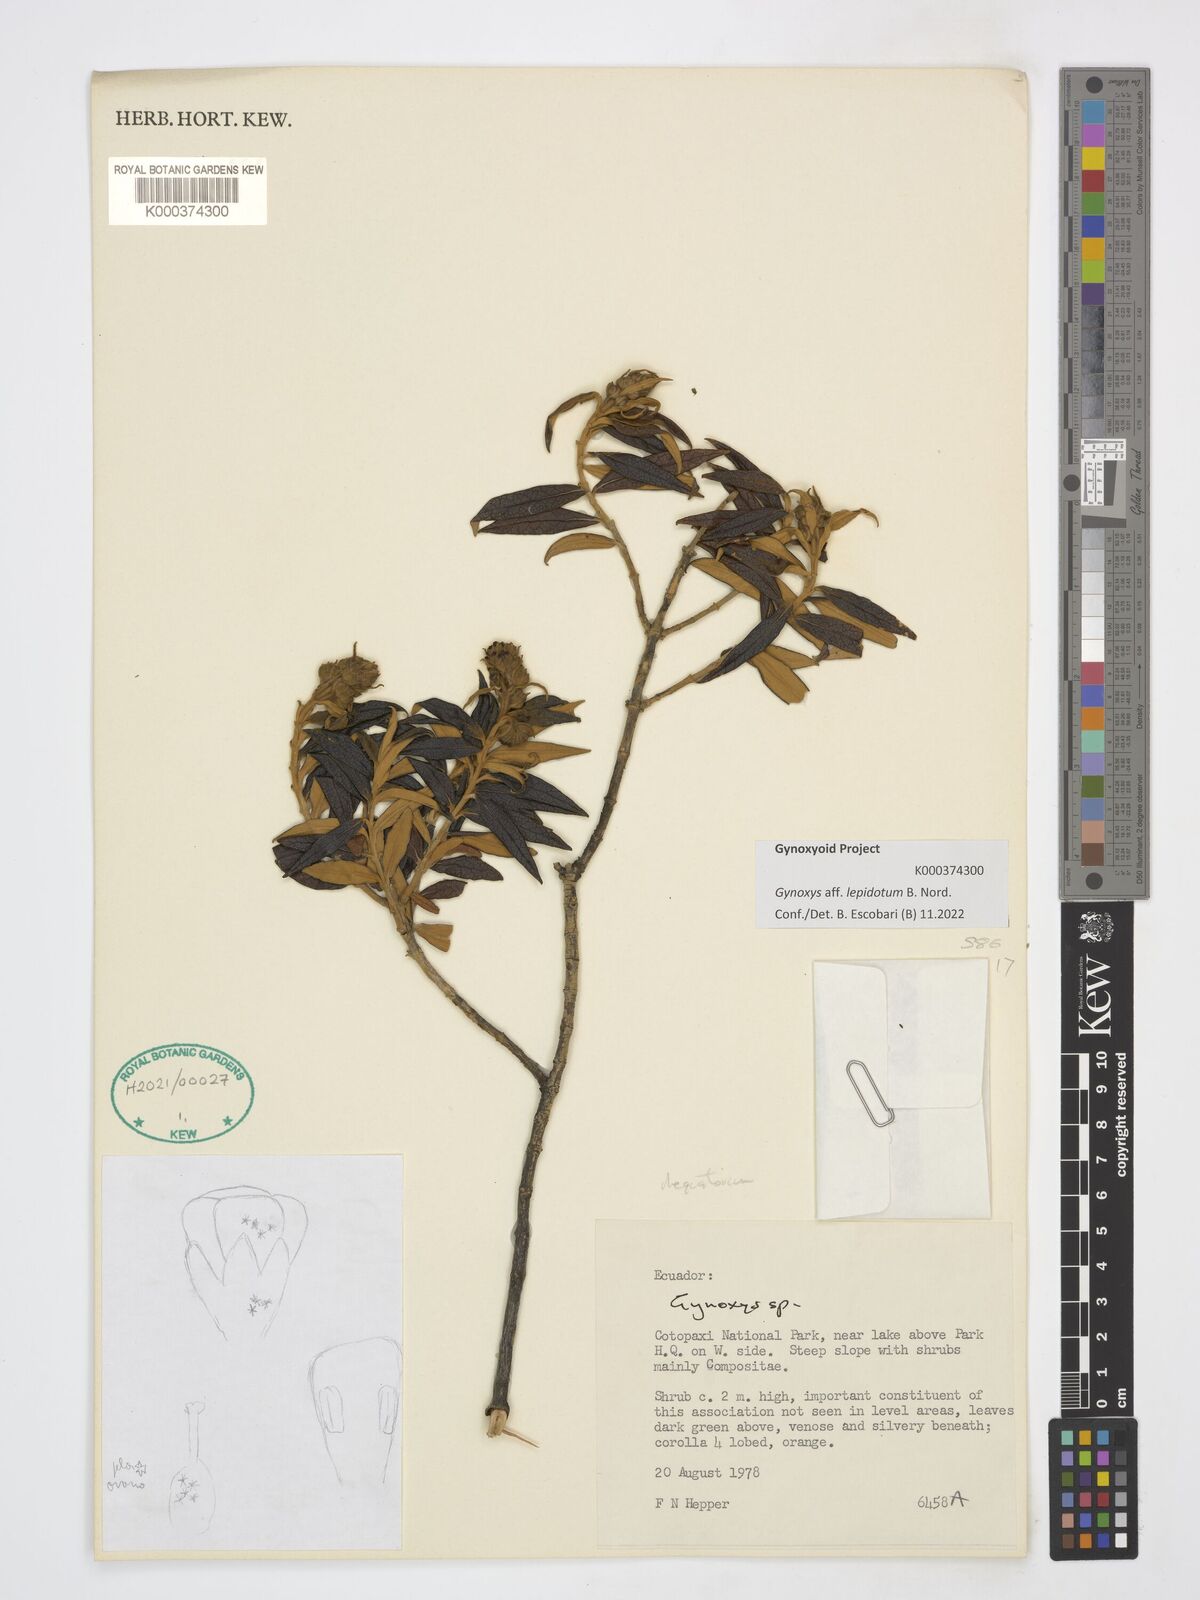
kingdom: Plantae
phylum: Tracheophyta
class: Magnoliopsida
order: Asterales
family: Asteraceae
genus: Gynoxys
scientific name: Gynoxys
